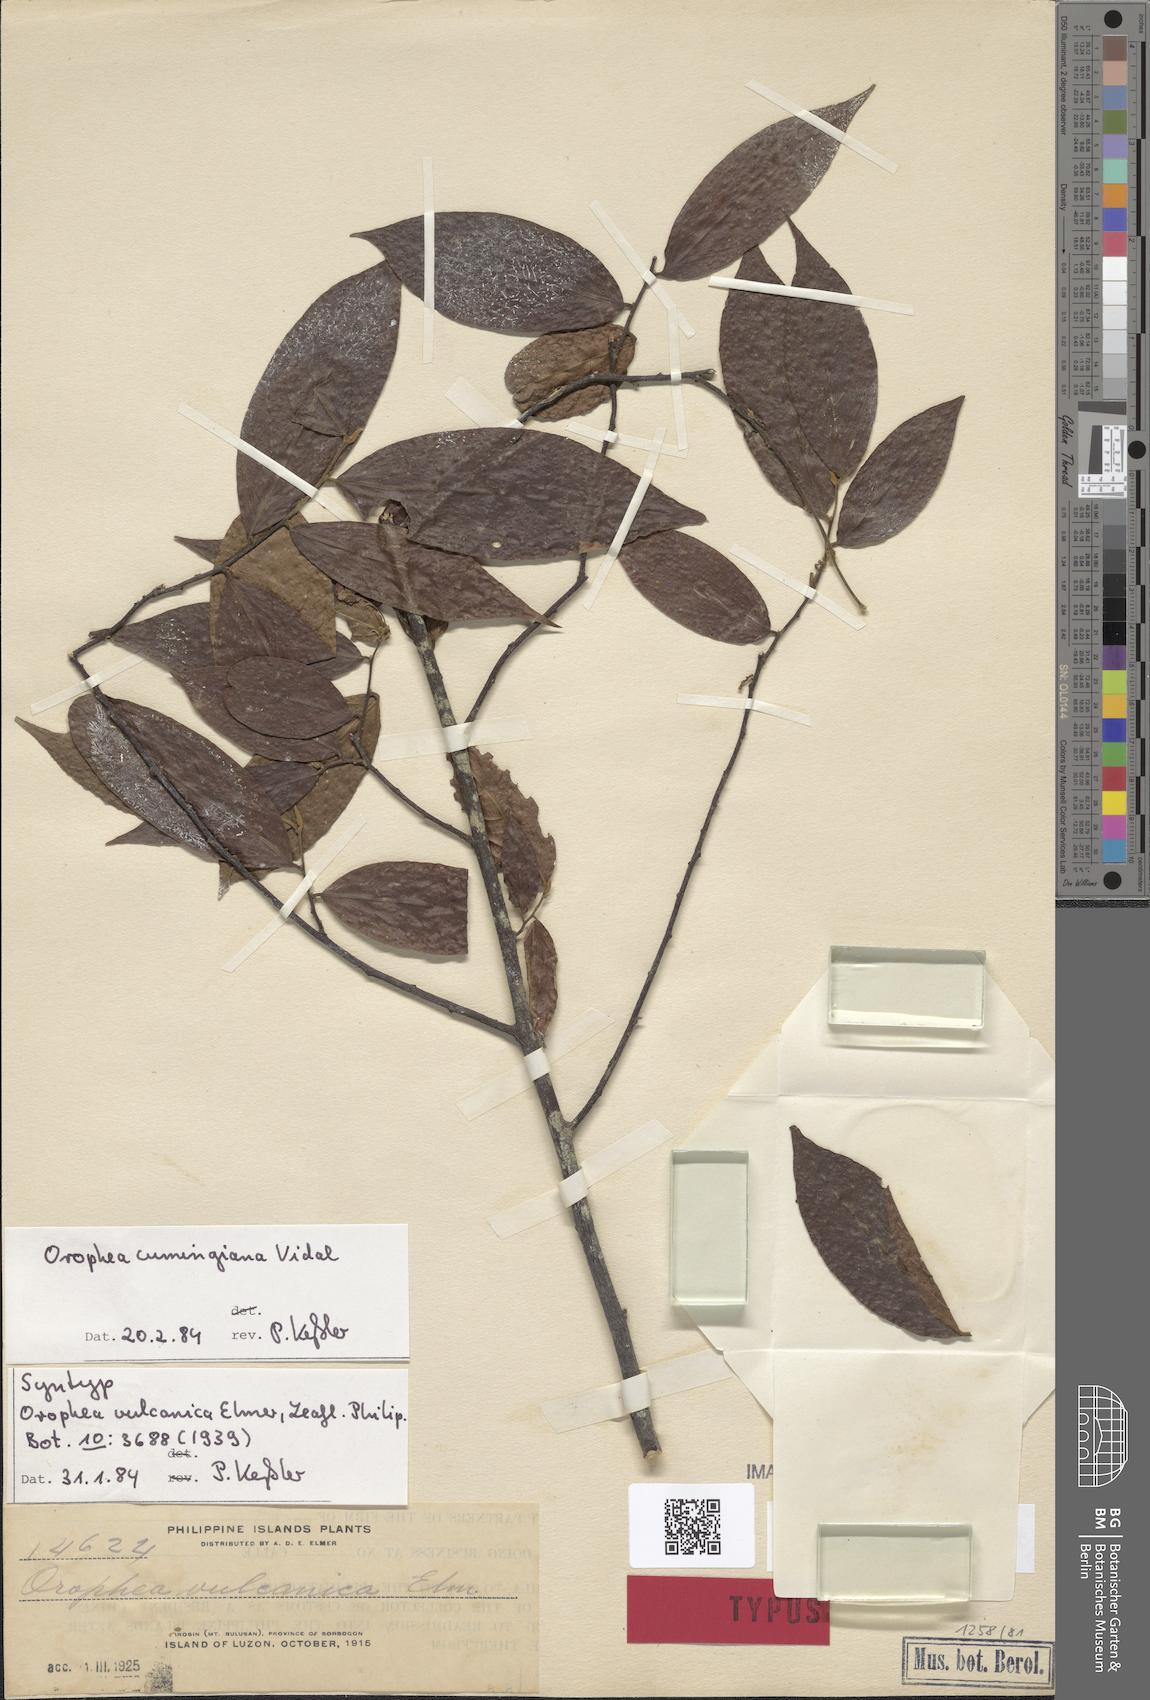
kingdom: Plantae
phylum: Tracheophyta
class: Magnoliopsida
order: Magnoliales
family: Annonaceae
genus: Orophea
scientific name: Orophea cumingiana
